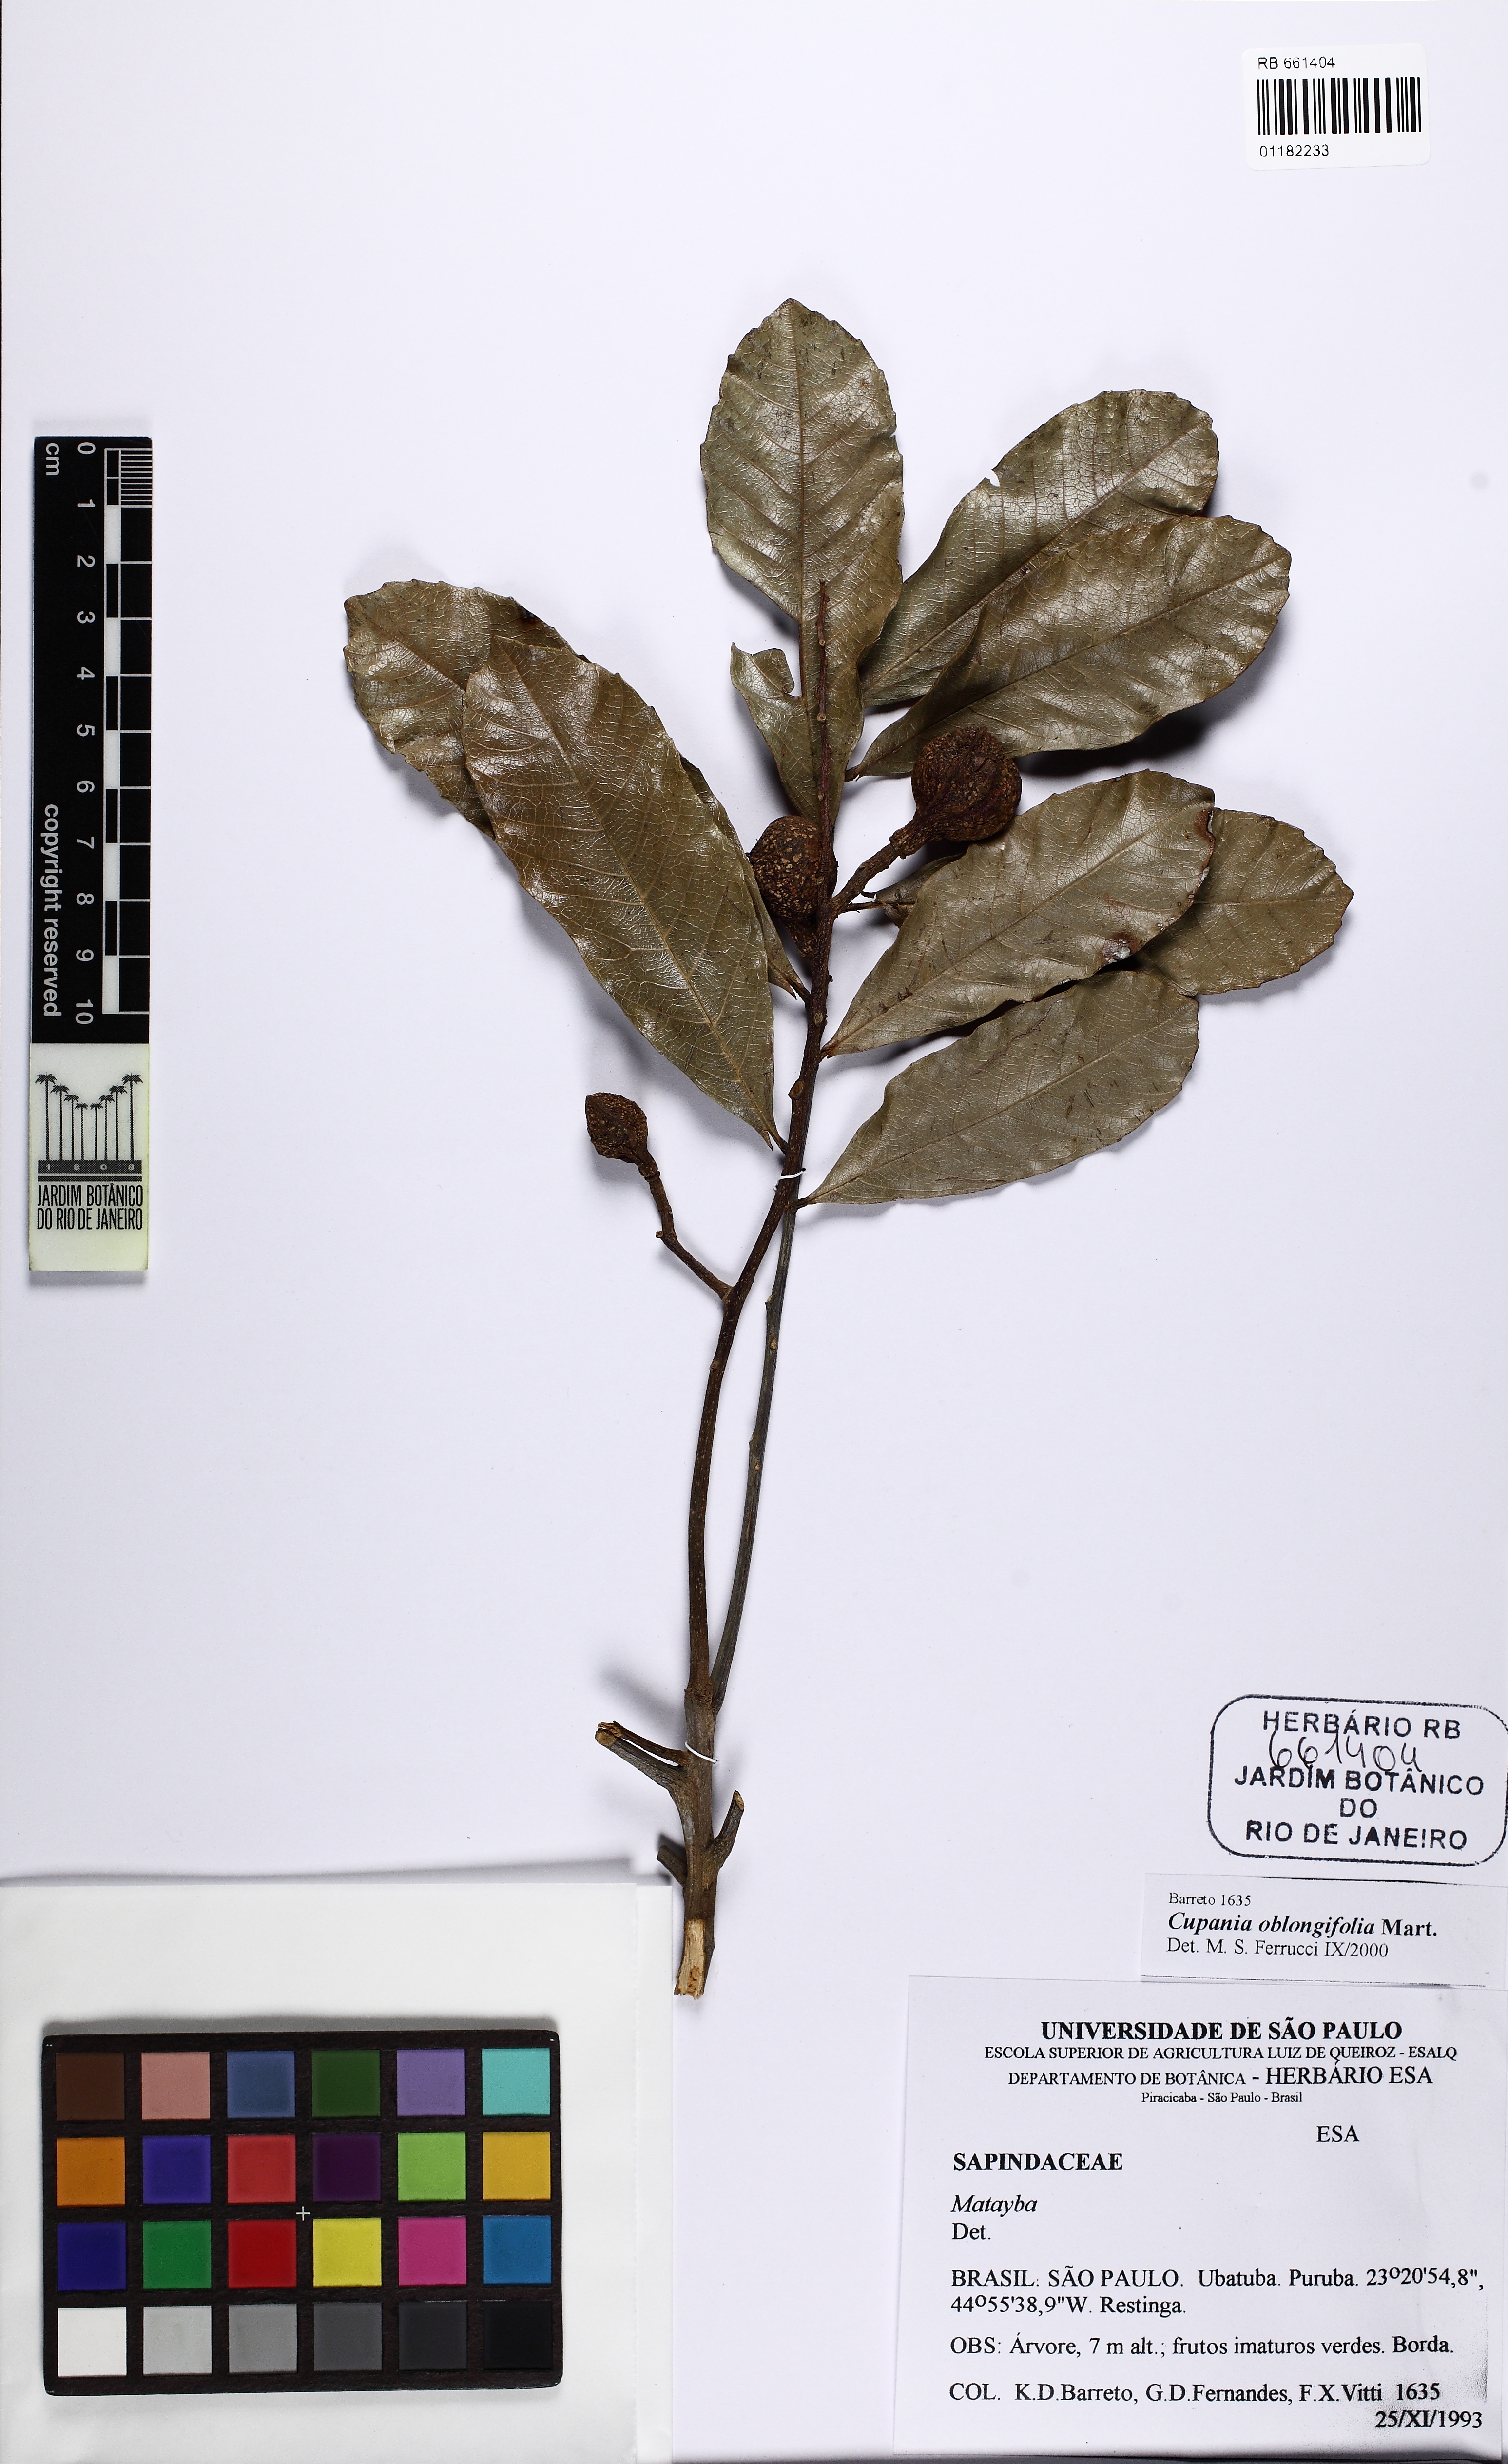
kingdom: Plantae
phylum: Tracheophyta
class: Magnoliopsida
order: Sapindales
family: Sapindaceae
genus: Cupania
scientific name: Cupania oblongifolia
